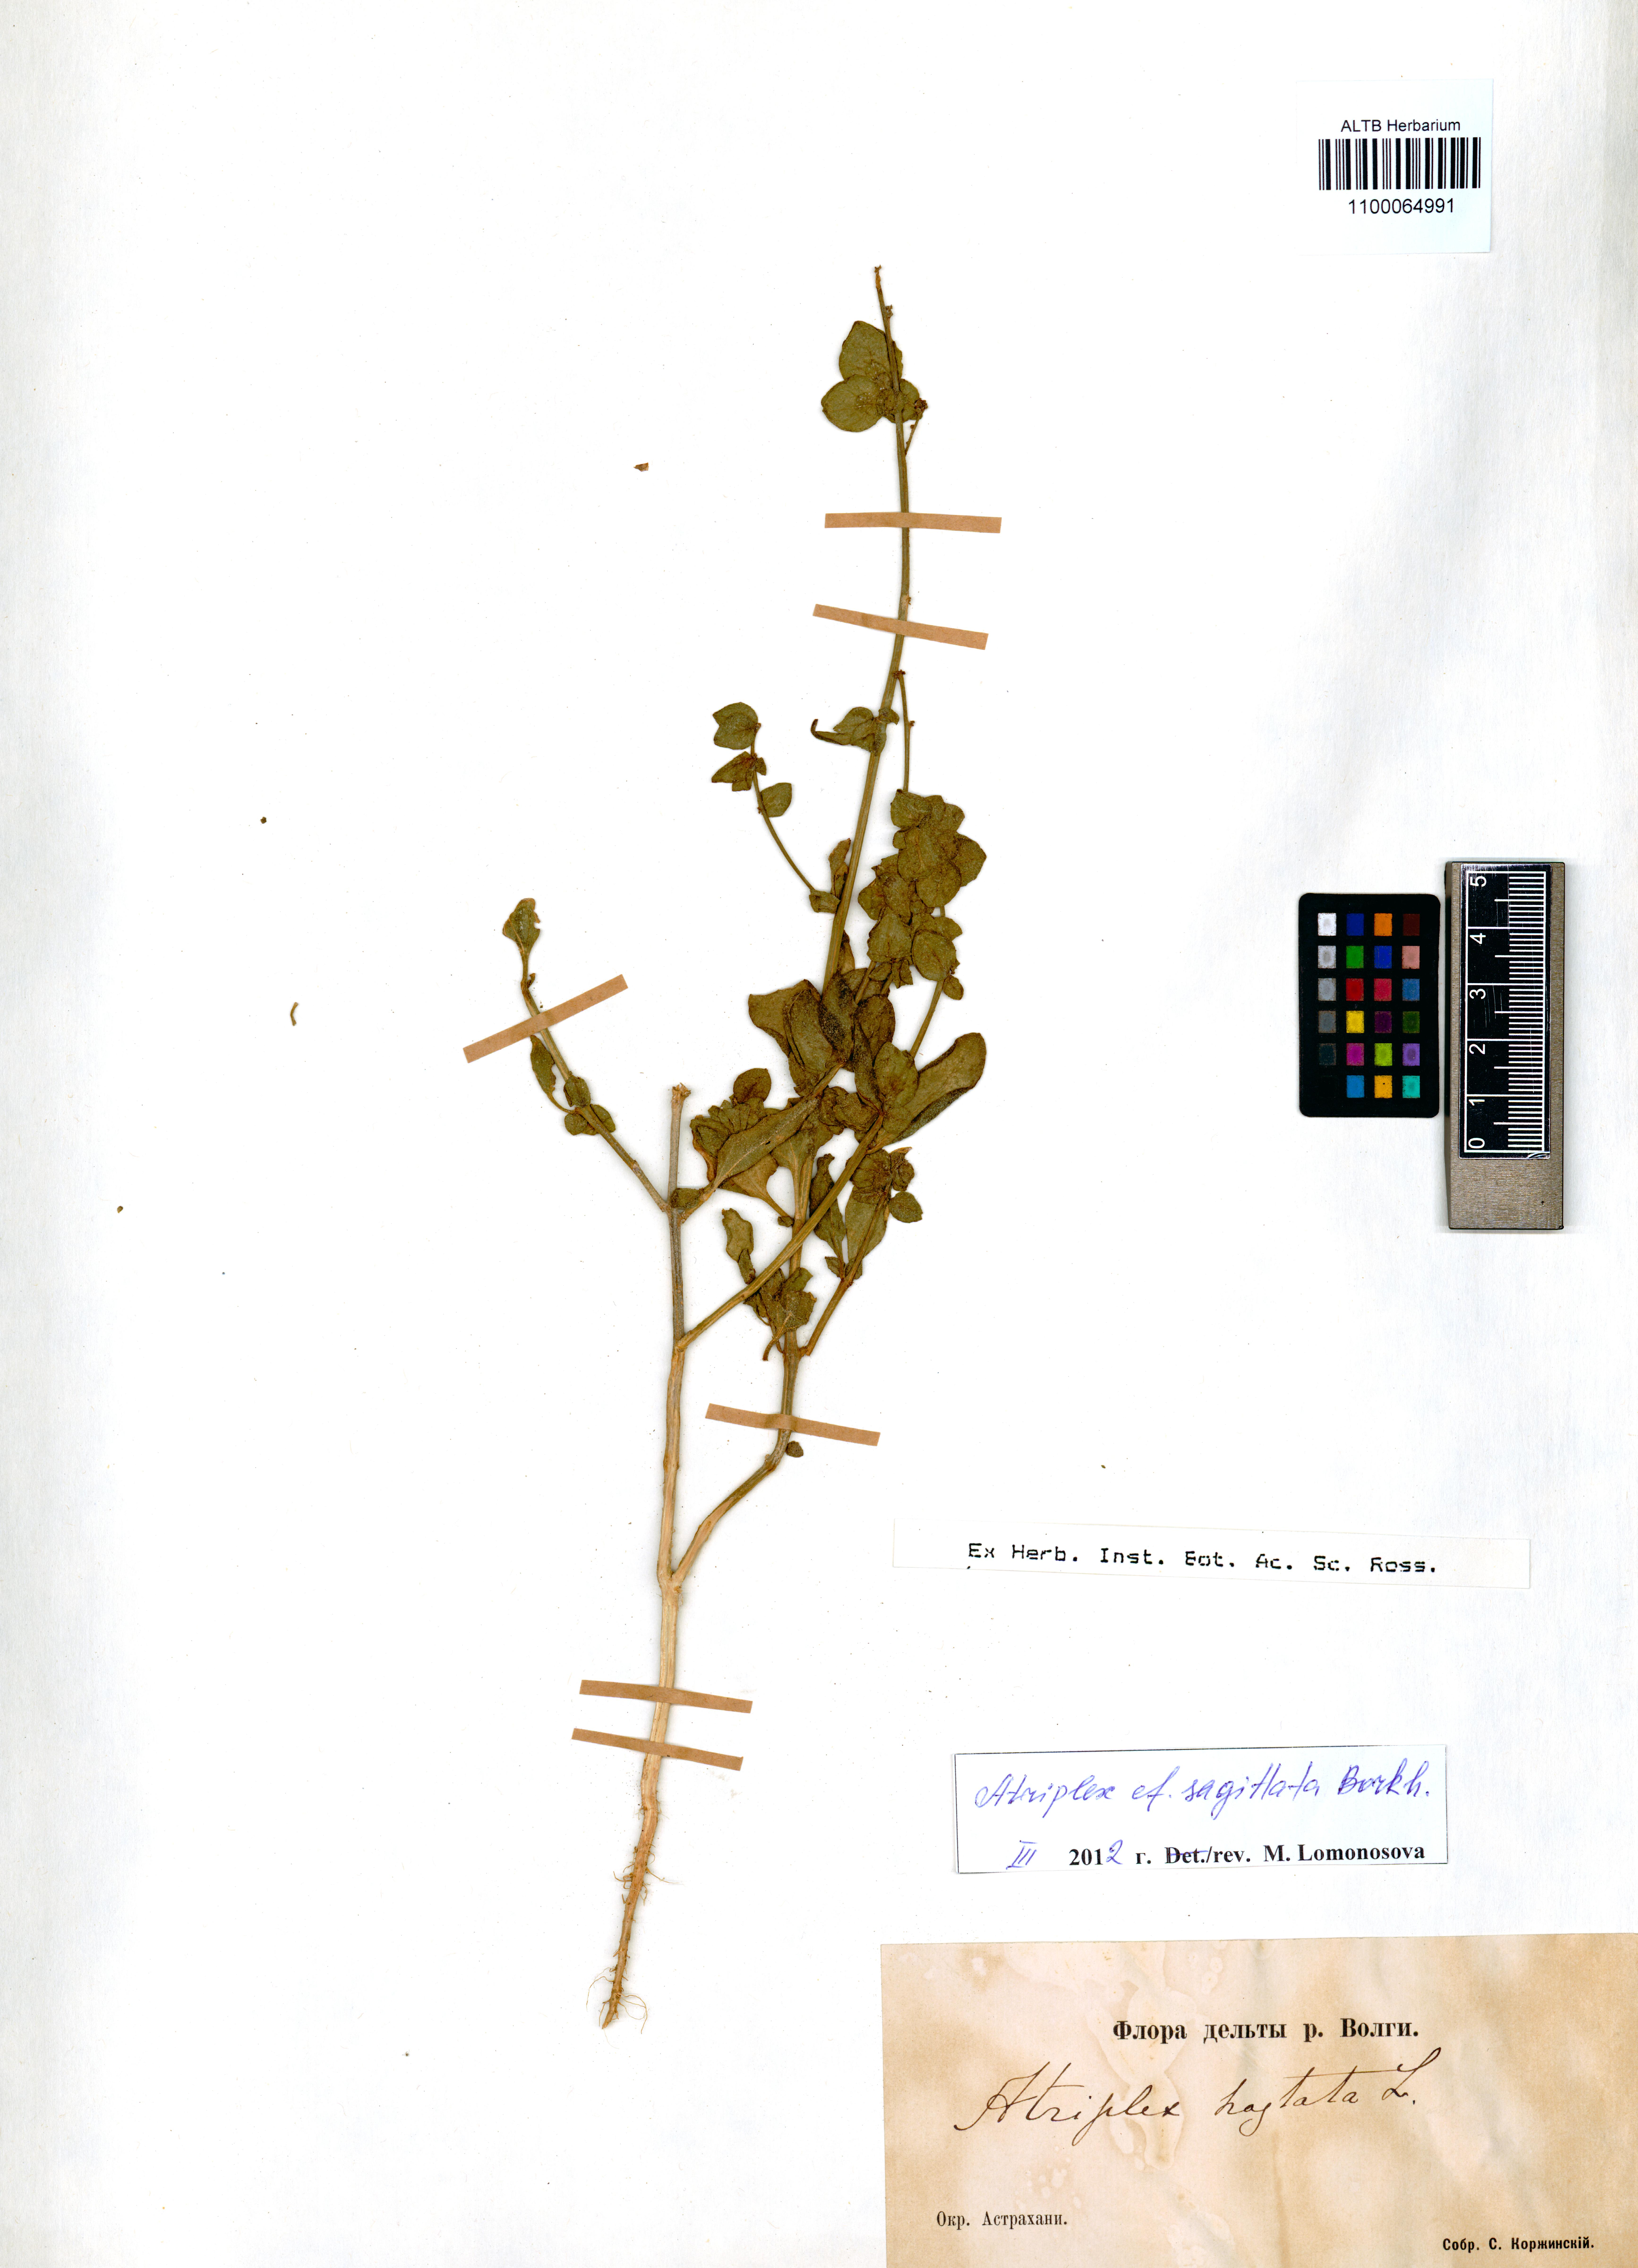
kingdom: Plantae
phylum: Tracheophyta
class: Magnoliopsida
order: Caryophyllales
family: Amaranthaceae
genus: Atriplex
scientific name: Atriplex sagittata
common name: Purple orache
